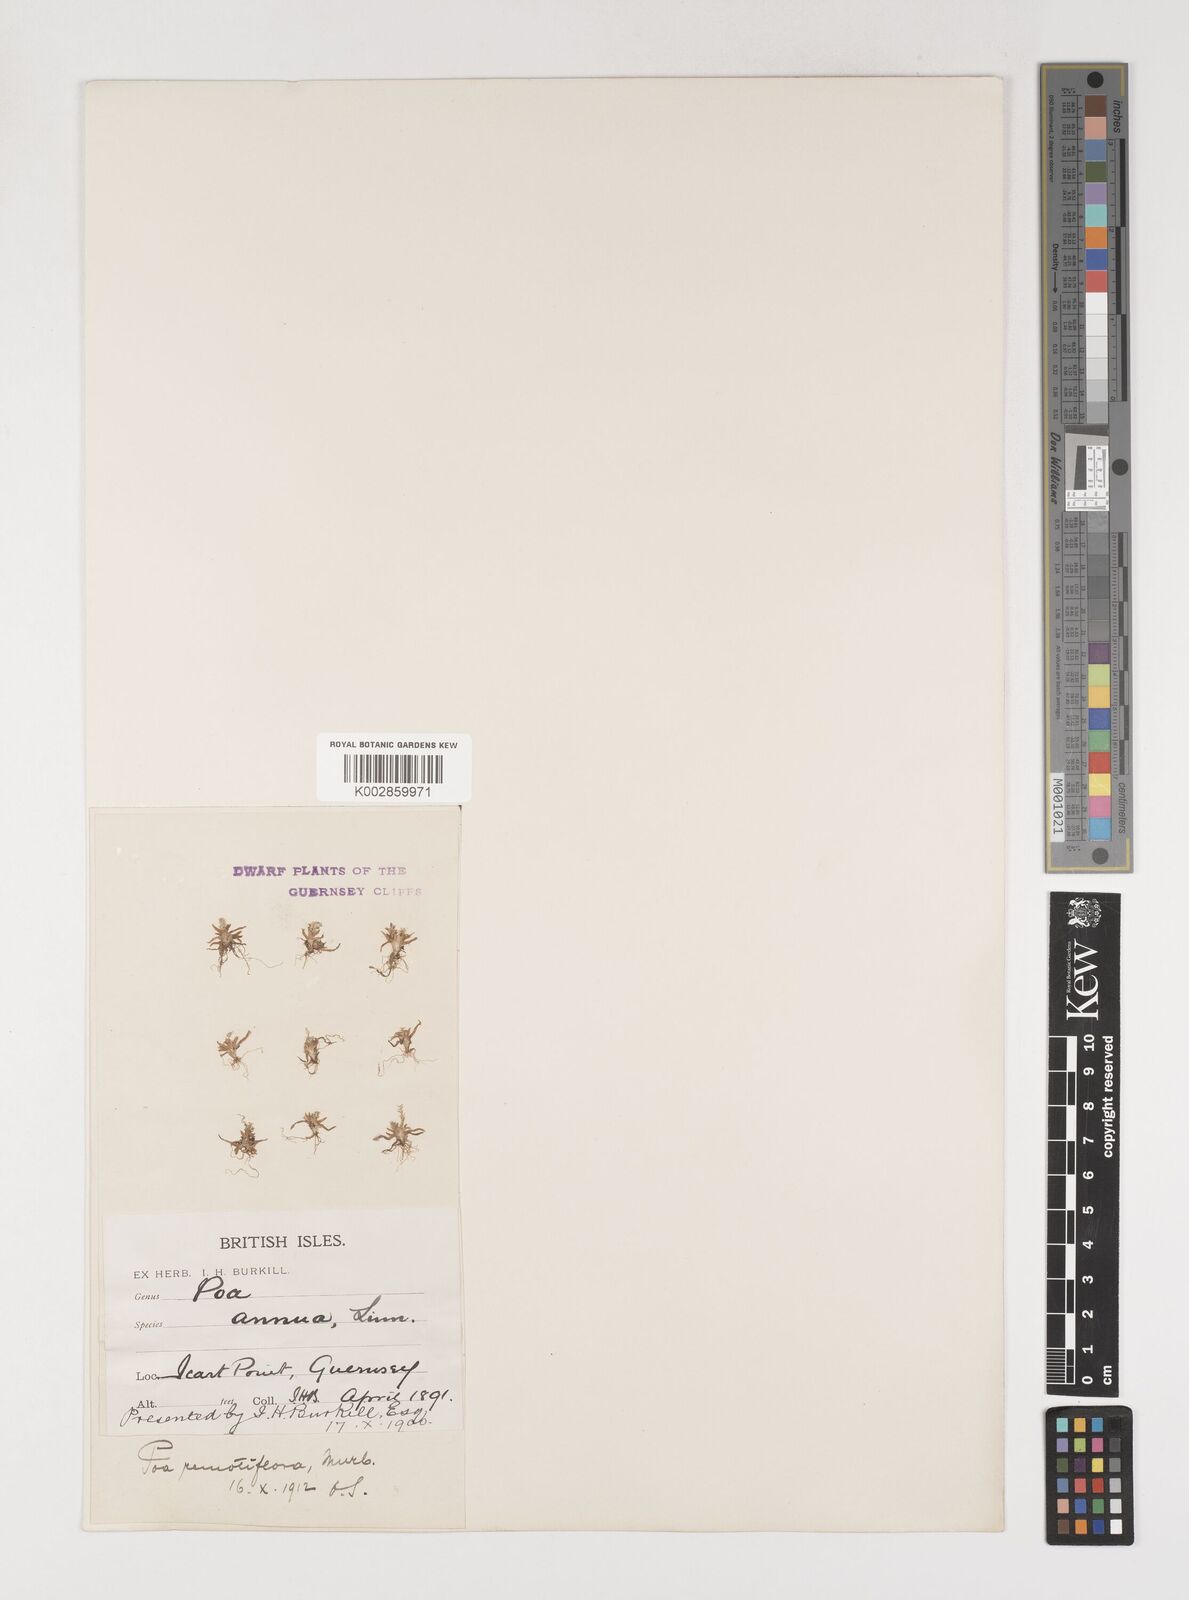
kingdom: Plantae
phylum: Tracheophyta
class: Liliopsida
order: Poales
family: Poaceae
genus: Poa
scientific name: Poa infirma
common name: Weak bluegrass
